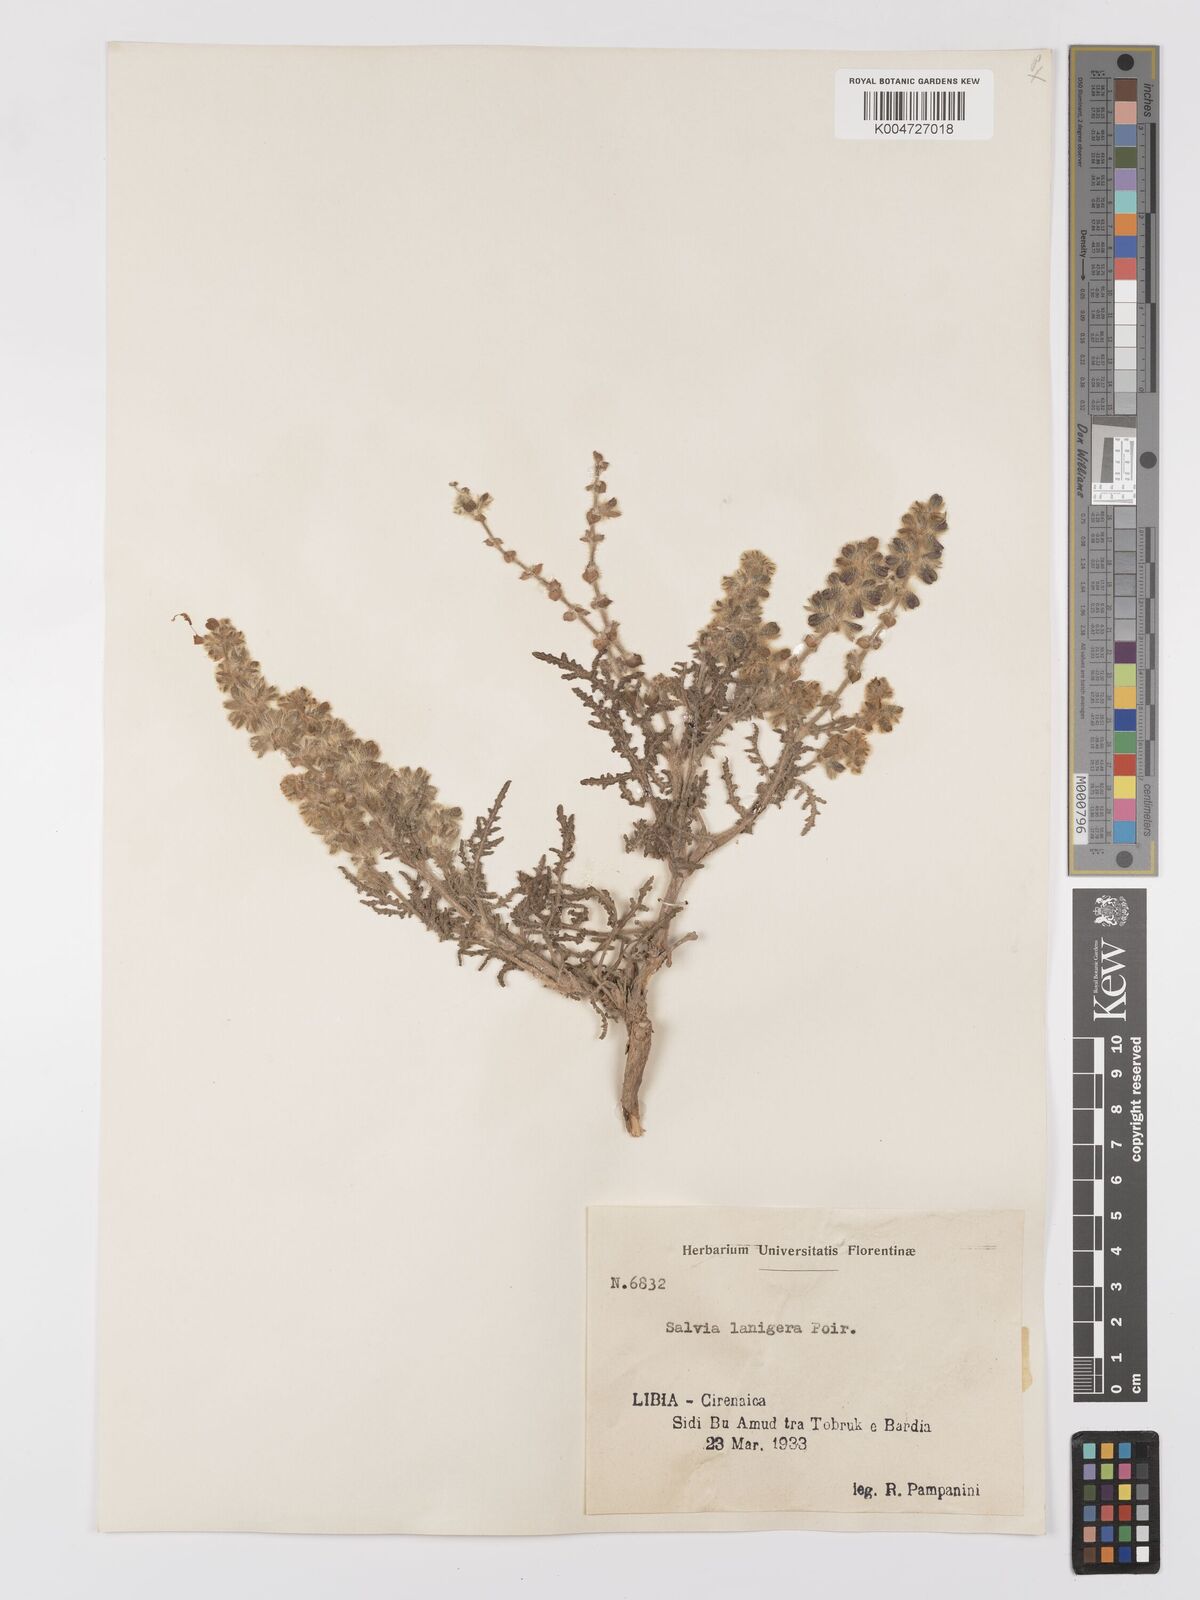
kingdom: Plantae
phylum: Tracheophyta
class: Magnoliopsida
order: Lamiales
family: Lamiaceae
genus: Salvia
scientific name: Salvia lanigera
